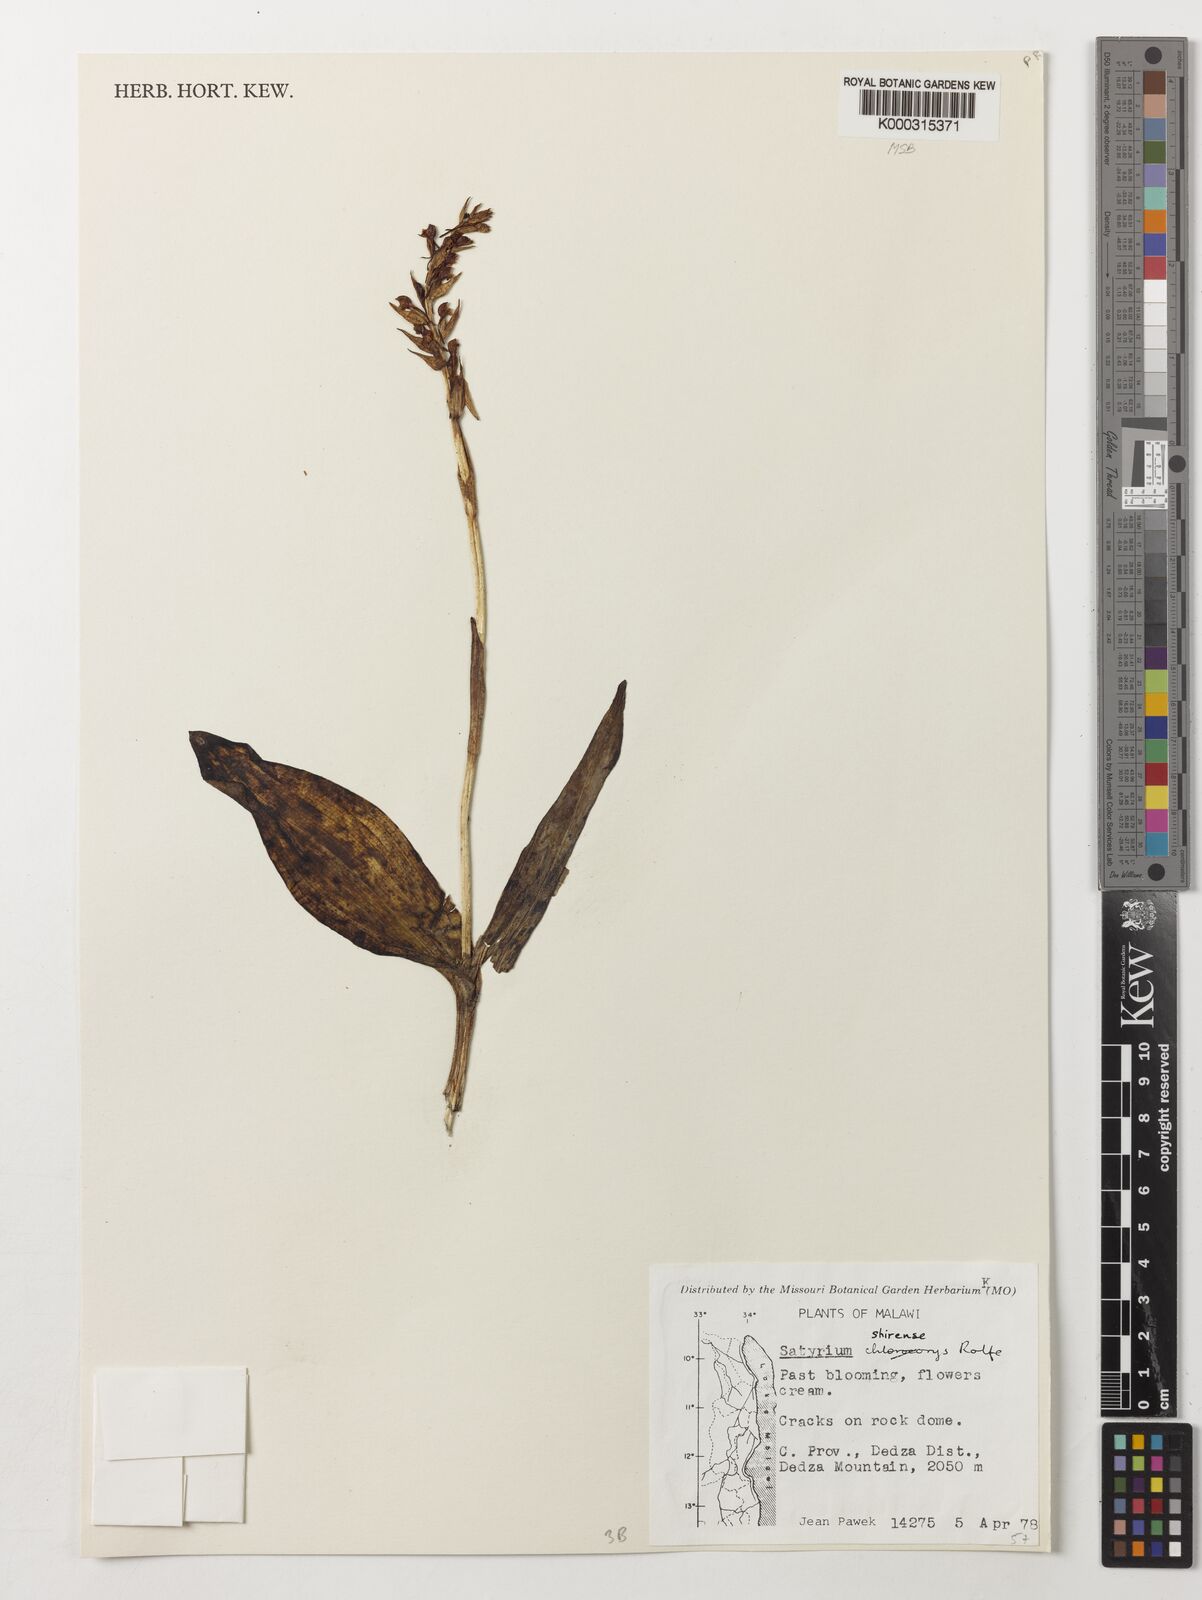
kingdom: Plantae
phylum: Tracheophyta
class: Liliopsida
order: Asparagales
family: Orchidaceae
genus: Satyrium
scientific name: Satyrium shirense
